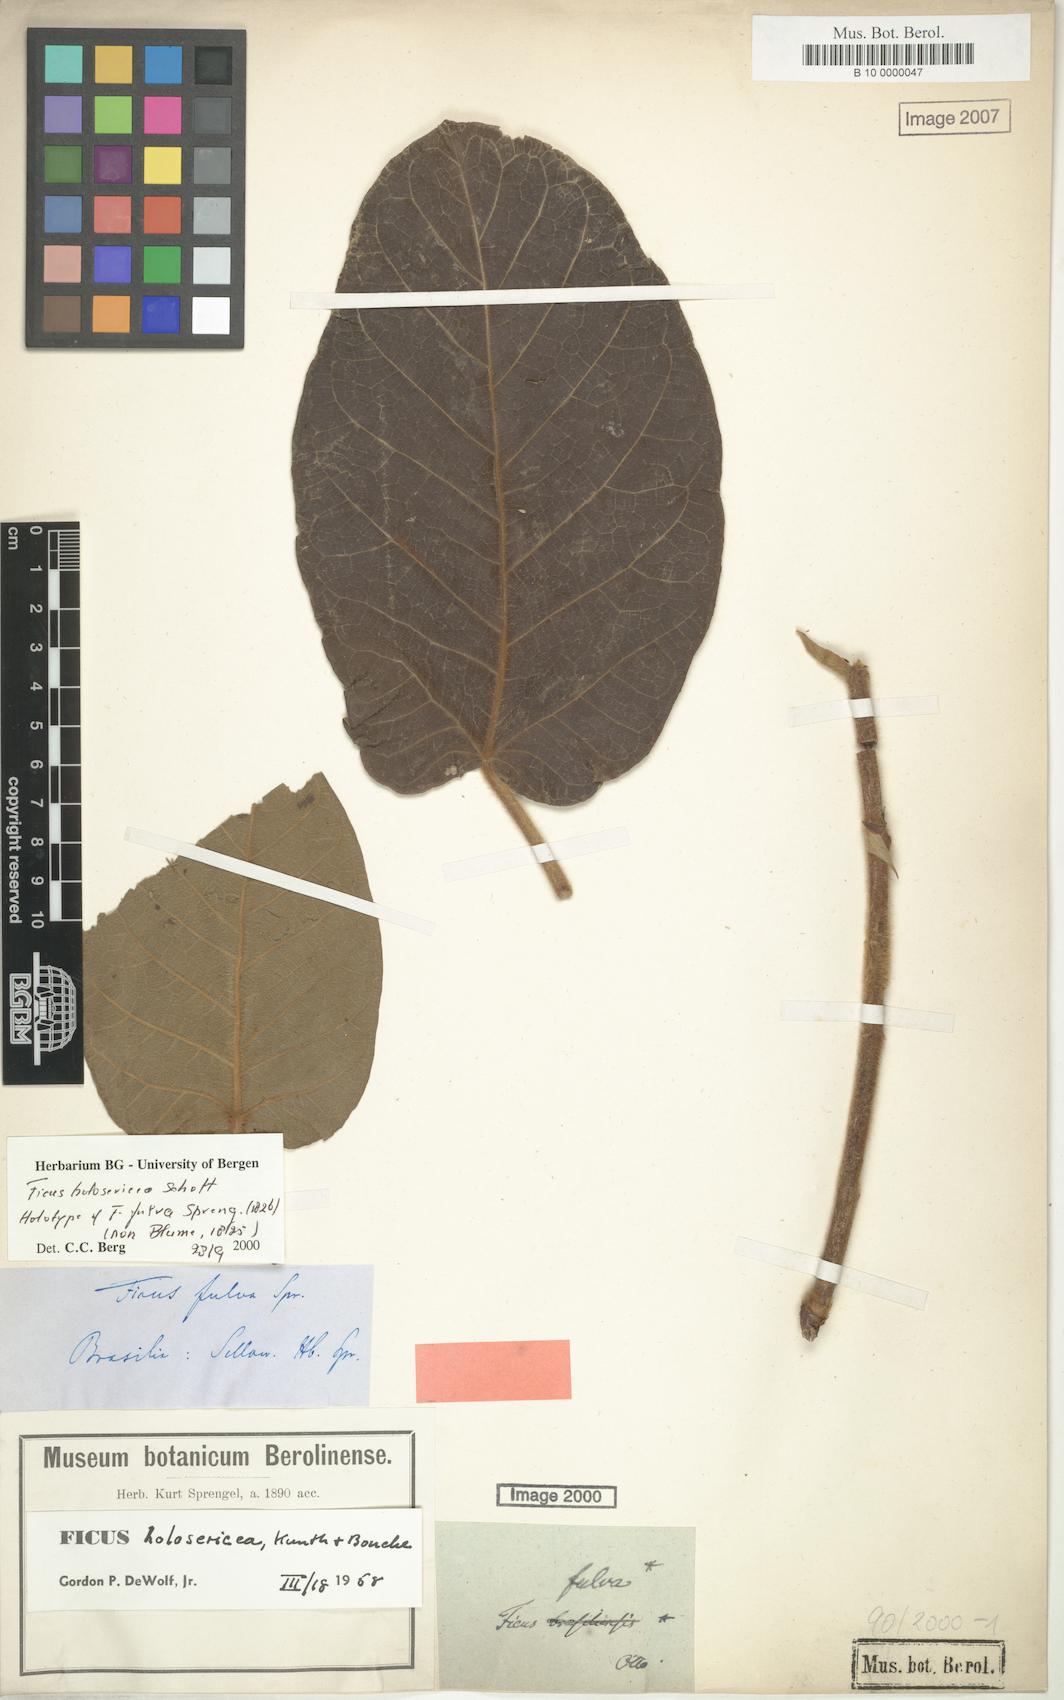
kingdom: Plantae
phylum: Tracheophyta
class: Magnoliopsida
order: Rosales
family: Moraceae
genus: Ficus
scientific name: Ficus holosericea
